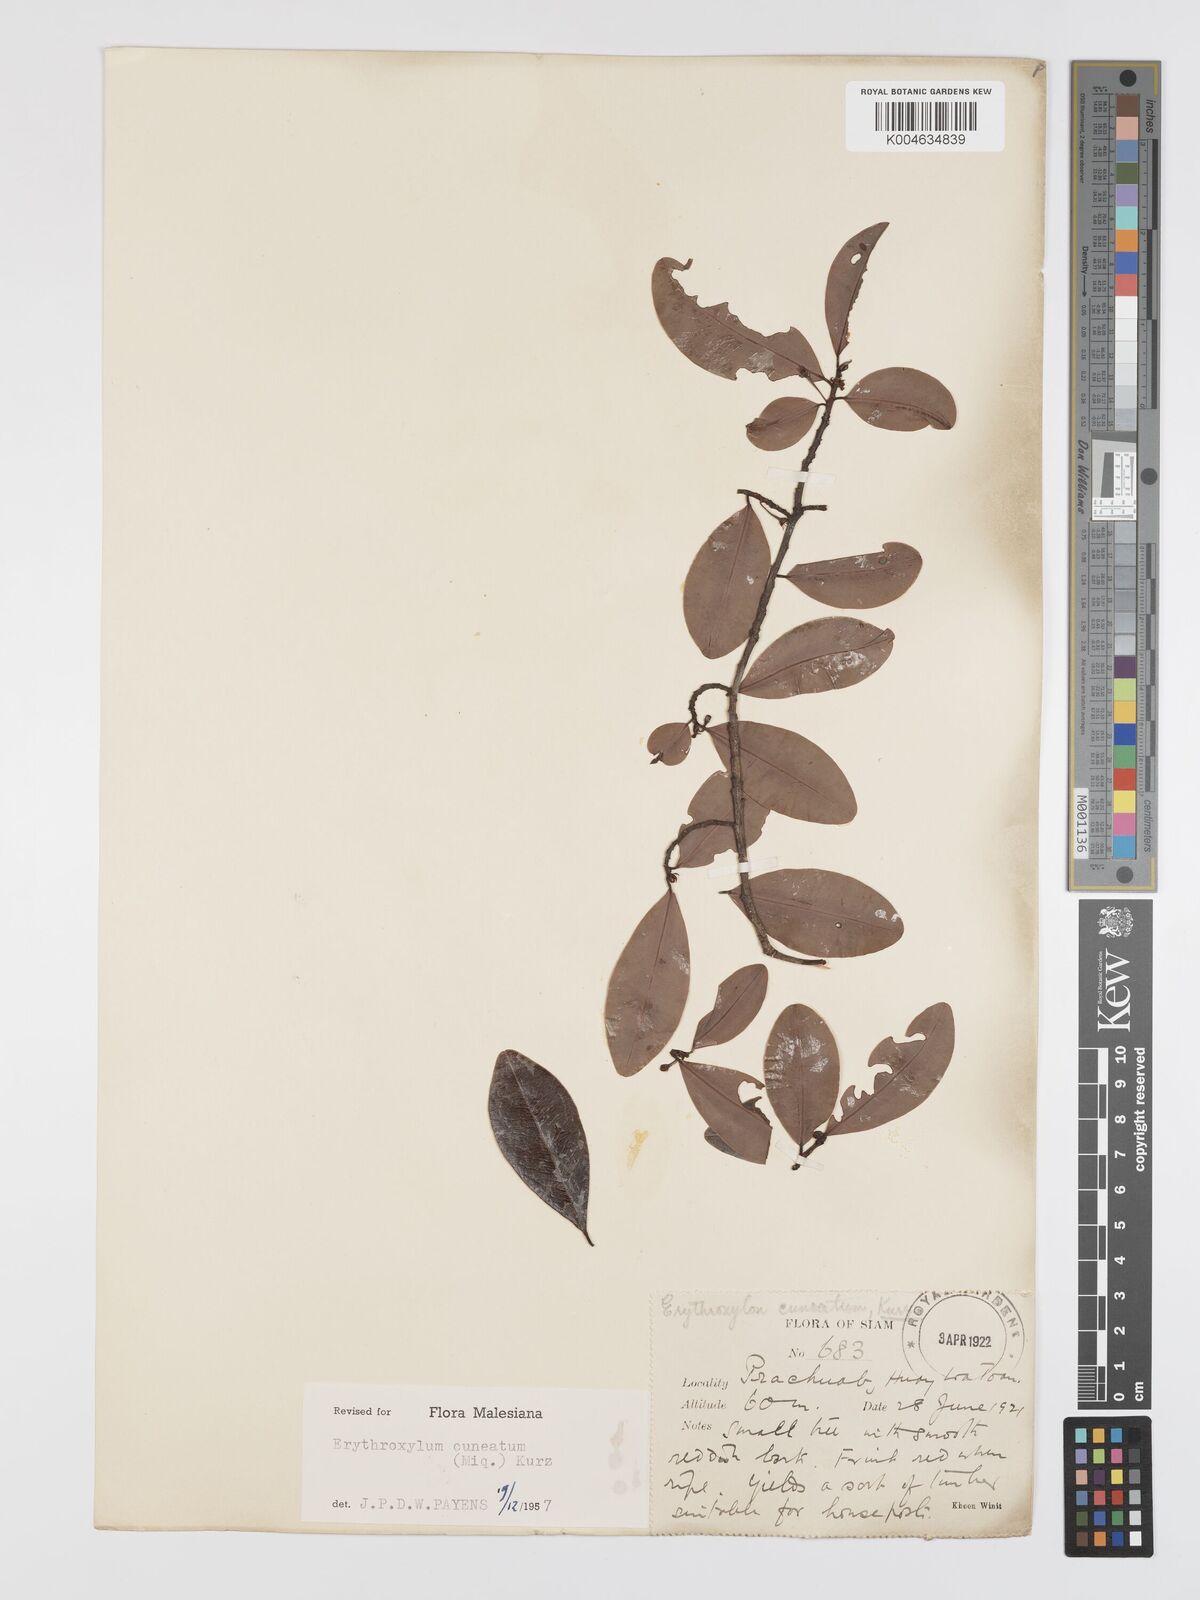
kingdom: Plantae
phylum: Tracheophyta
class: Magnoliopsida
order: Malpighiales
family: Erythroxylaceae
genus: Erythroxylum
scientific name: Erythroxylum cuneatum
